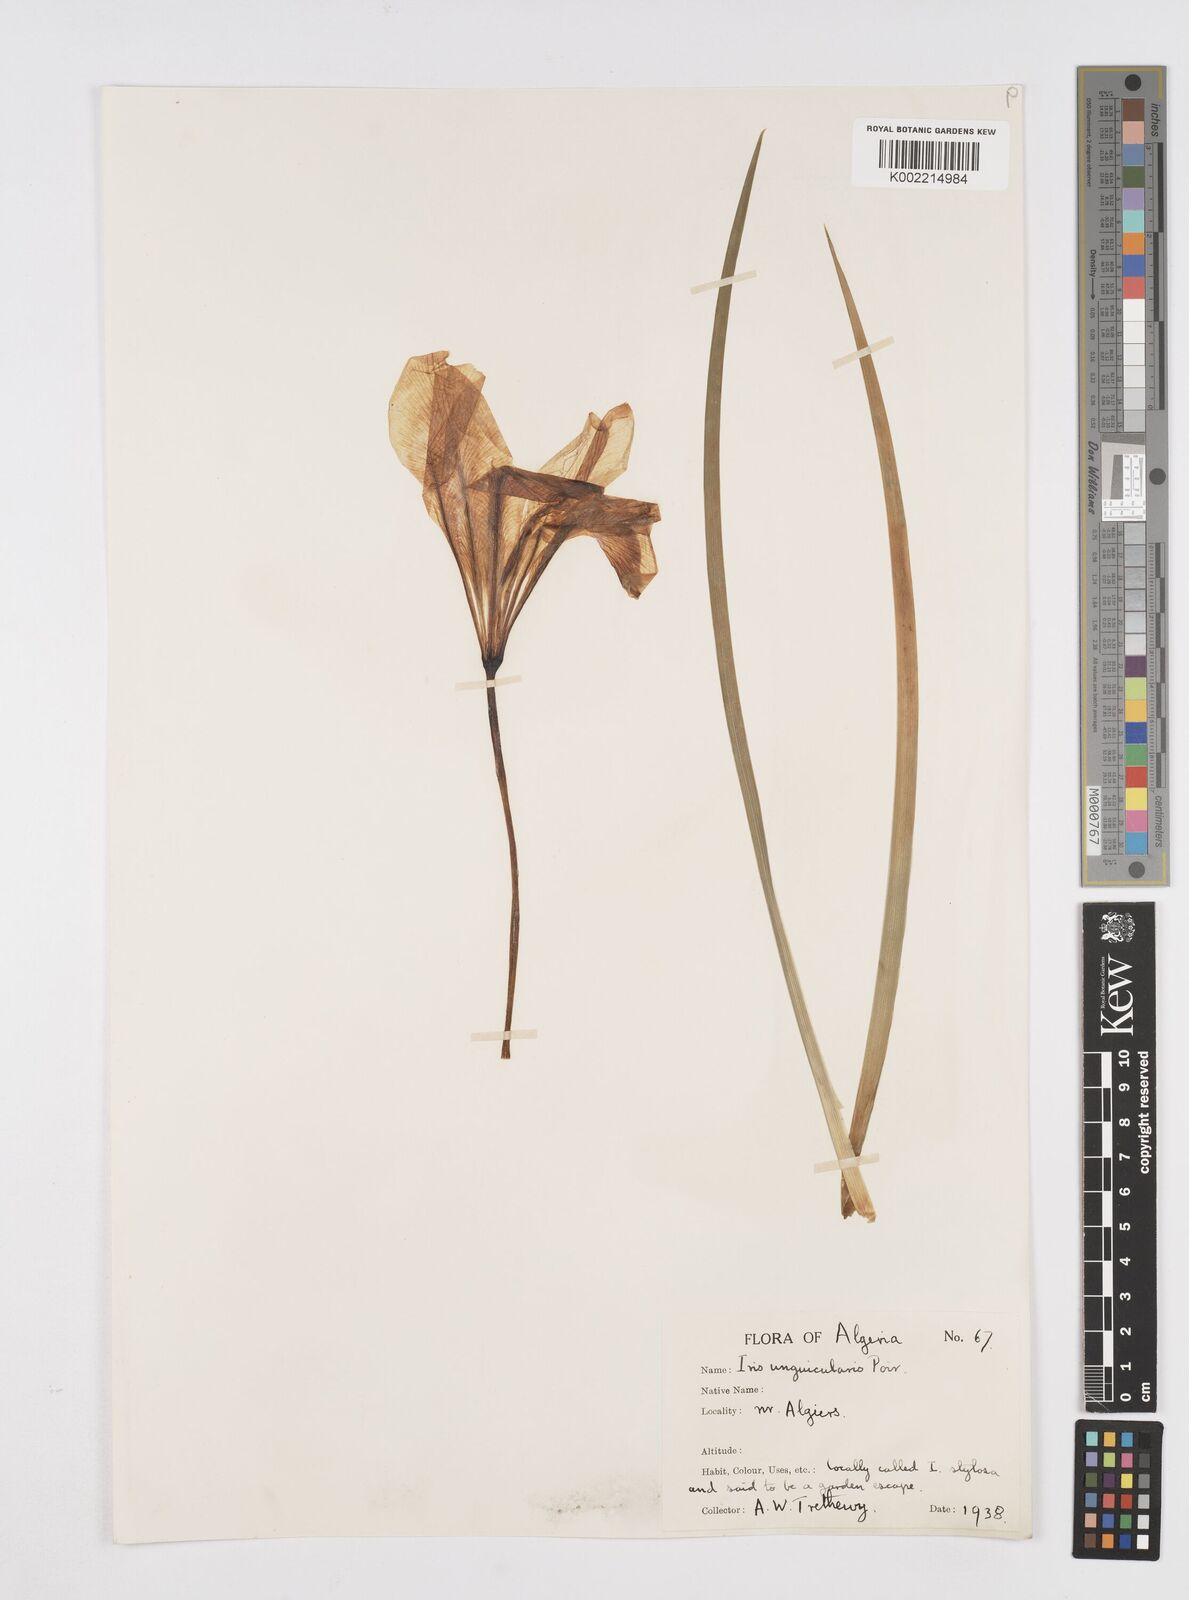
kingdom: Plantae
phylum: Tracheophyta
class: Liliopsida
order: Asparagales
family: Iridaceae
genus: Iris
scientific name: Iris unguicularis
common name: Algerian iris
